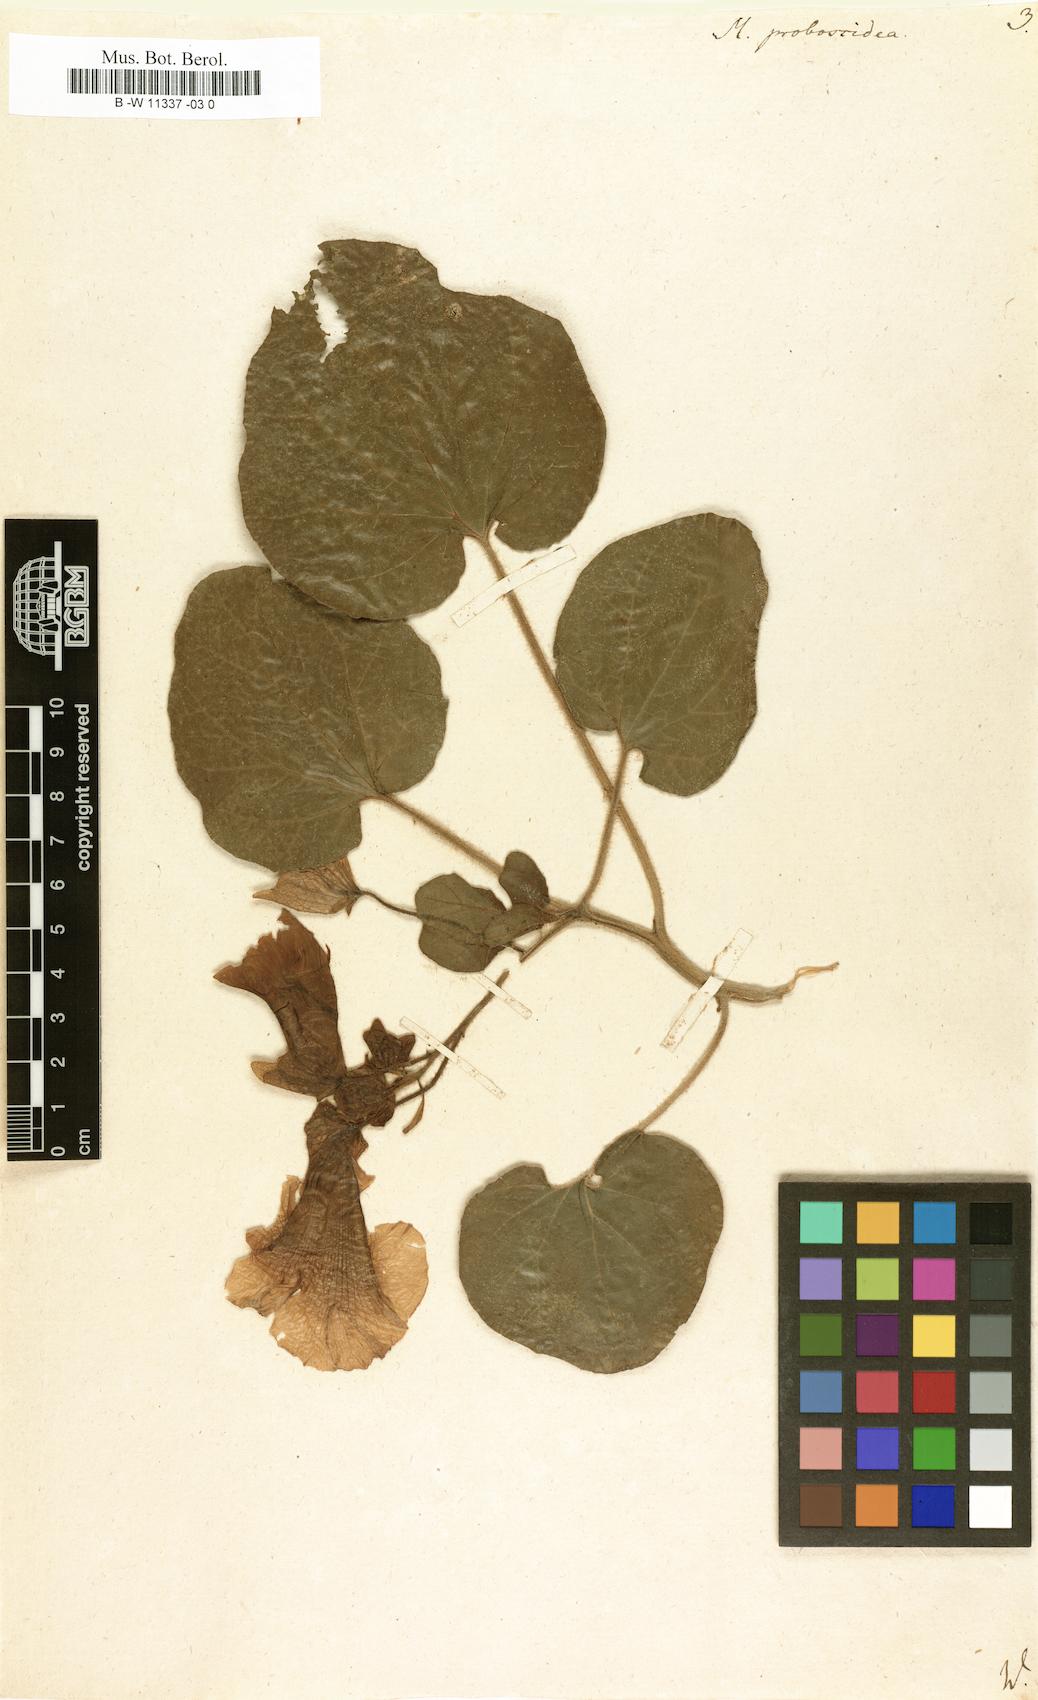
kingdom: Plantae
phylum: Tracheophyta
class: Magnoliopsida
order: Lamiales
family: Martyniaceae
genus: Proboscidea
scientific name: Proboscidea louisianica
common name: Elephant tusks
